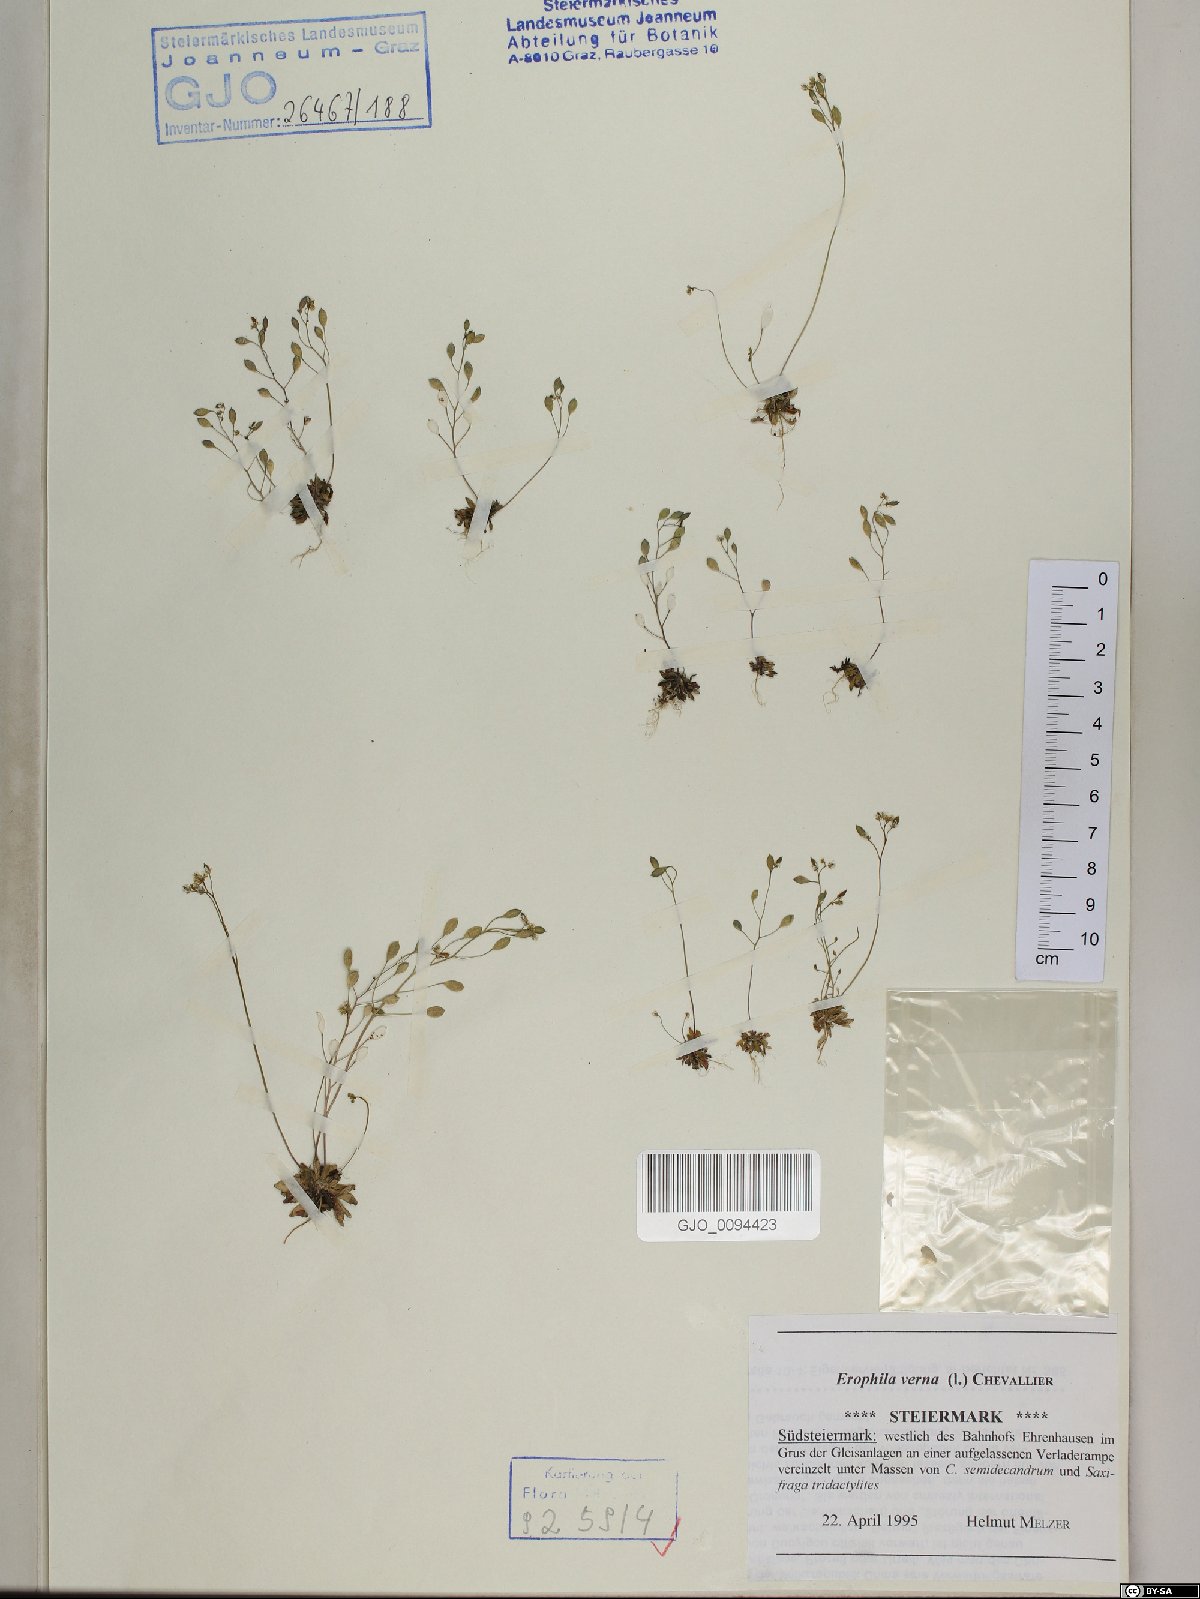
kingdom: Plantae
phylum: Tracheophyta
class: Magnoliopsida
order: Brassicales
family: Brassicaceae
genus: Draba
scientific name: Draba verna
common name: Spring draba
